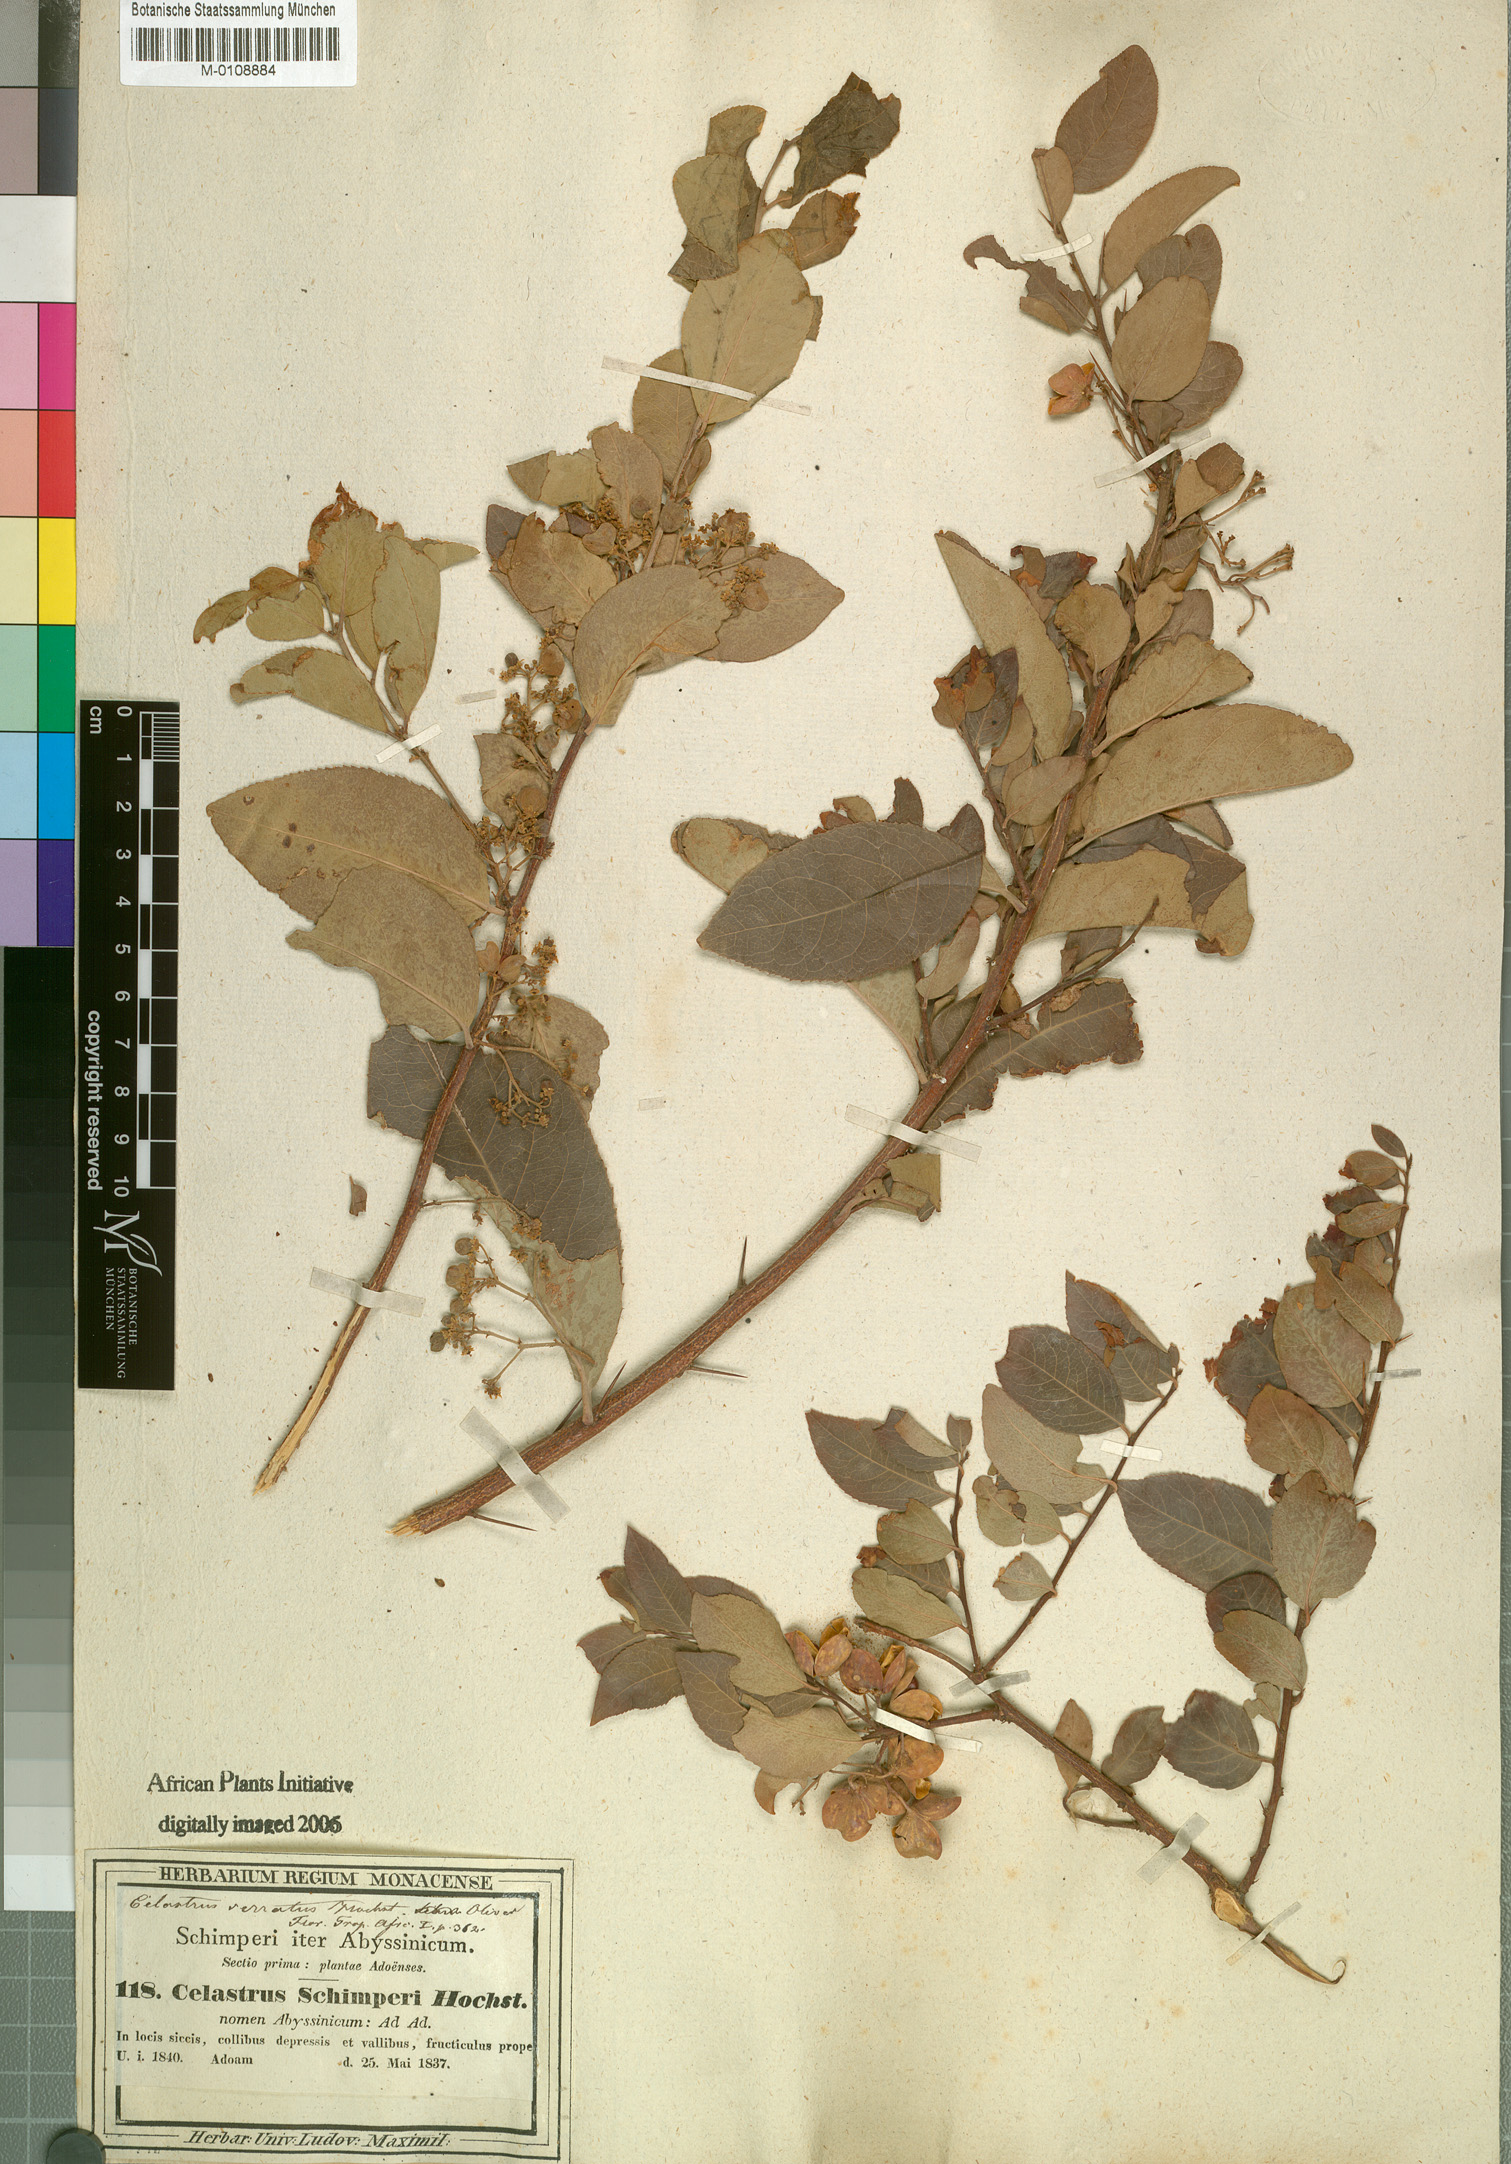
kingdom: Plantae
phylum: Tracheophyta
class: Magnoliopsida
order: Celastrales
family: Celastraceae
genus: Gymnosporia
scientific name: Gymnosporia serrata
